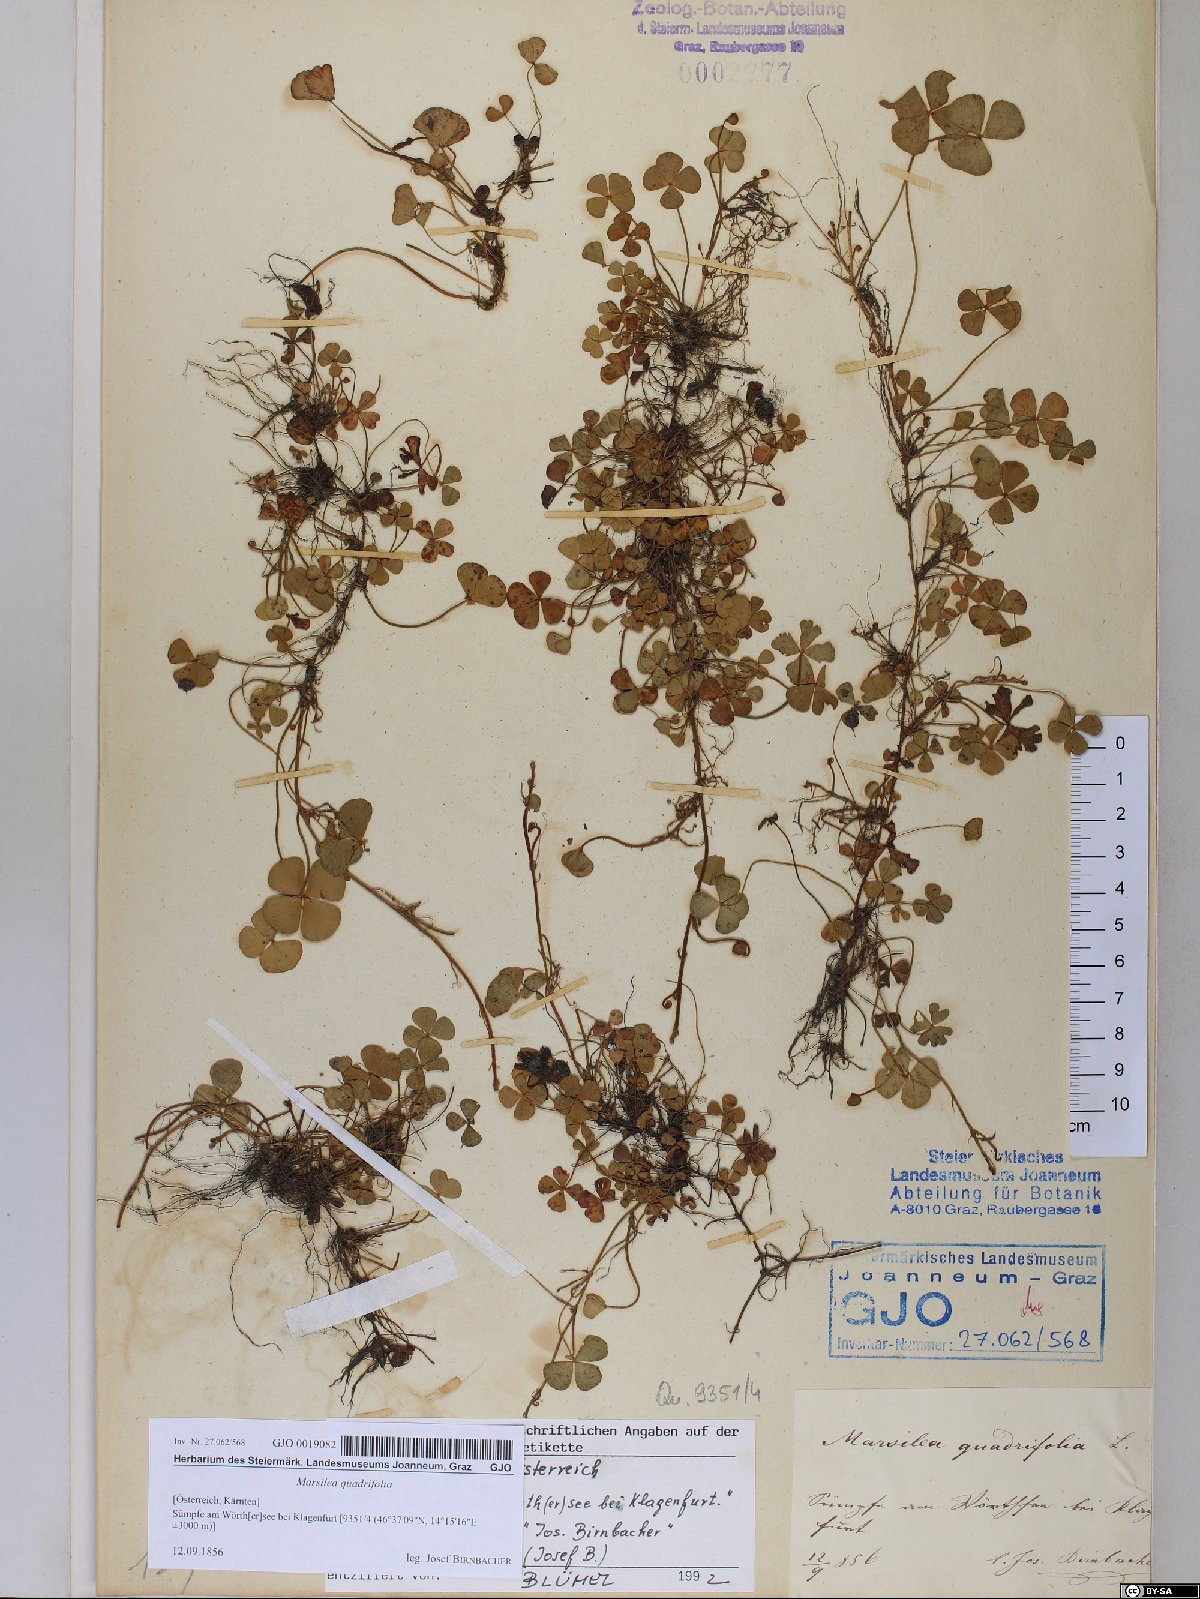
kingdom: Plantae
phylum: Tracheophyta
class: Polypodiopsida
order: Salviniales
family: Marsileaceae
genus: Marsilea
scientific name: Marsilea quadrifolia
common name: Water shamrock
